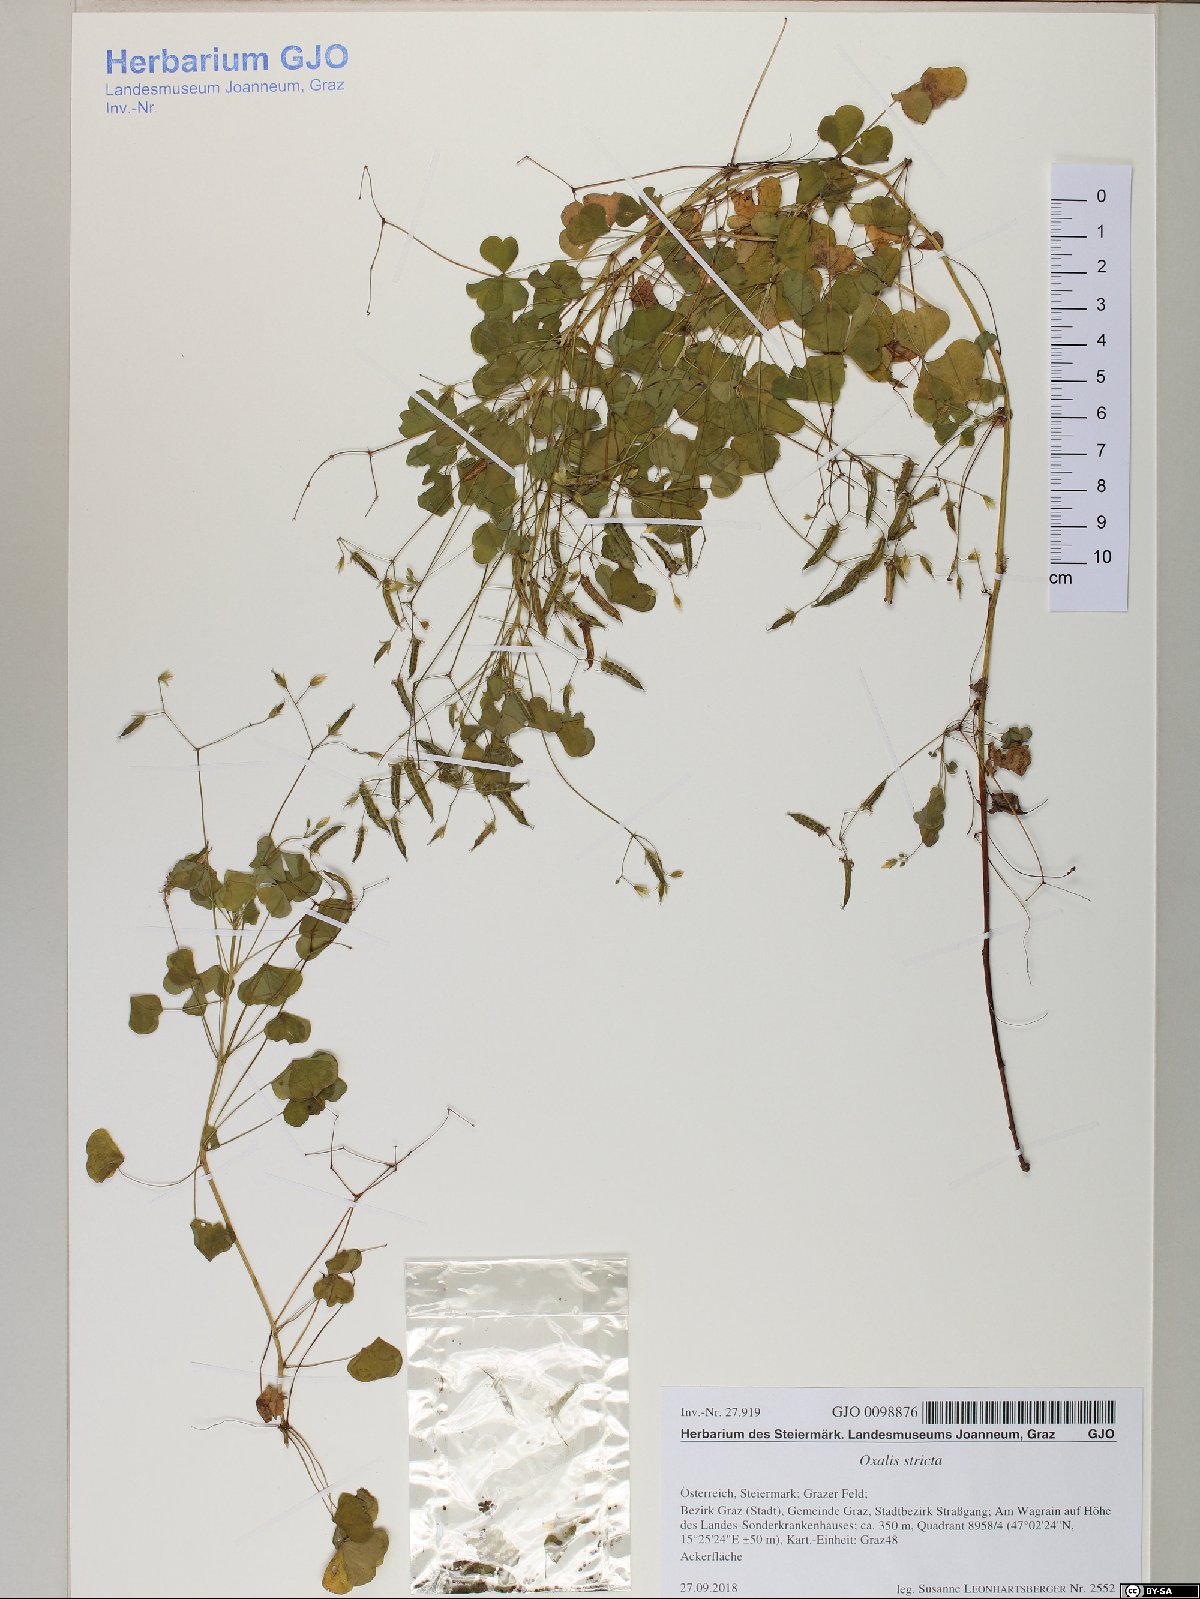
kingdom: Plantae
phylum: Tracheophyta
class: Magnoliopsida
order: Oxalidales
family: Oxalidaceae
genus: Oxalis
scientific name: Oxalis stricta
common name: Upright yellow-sorrel
